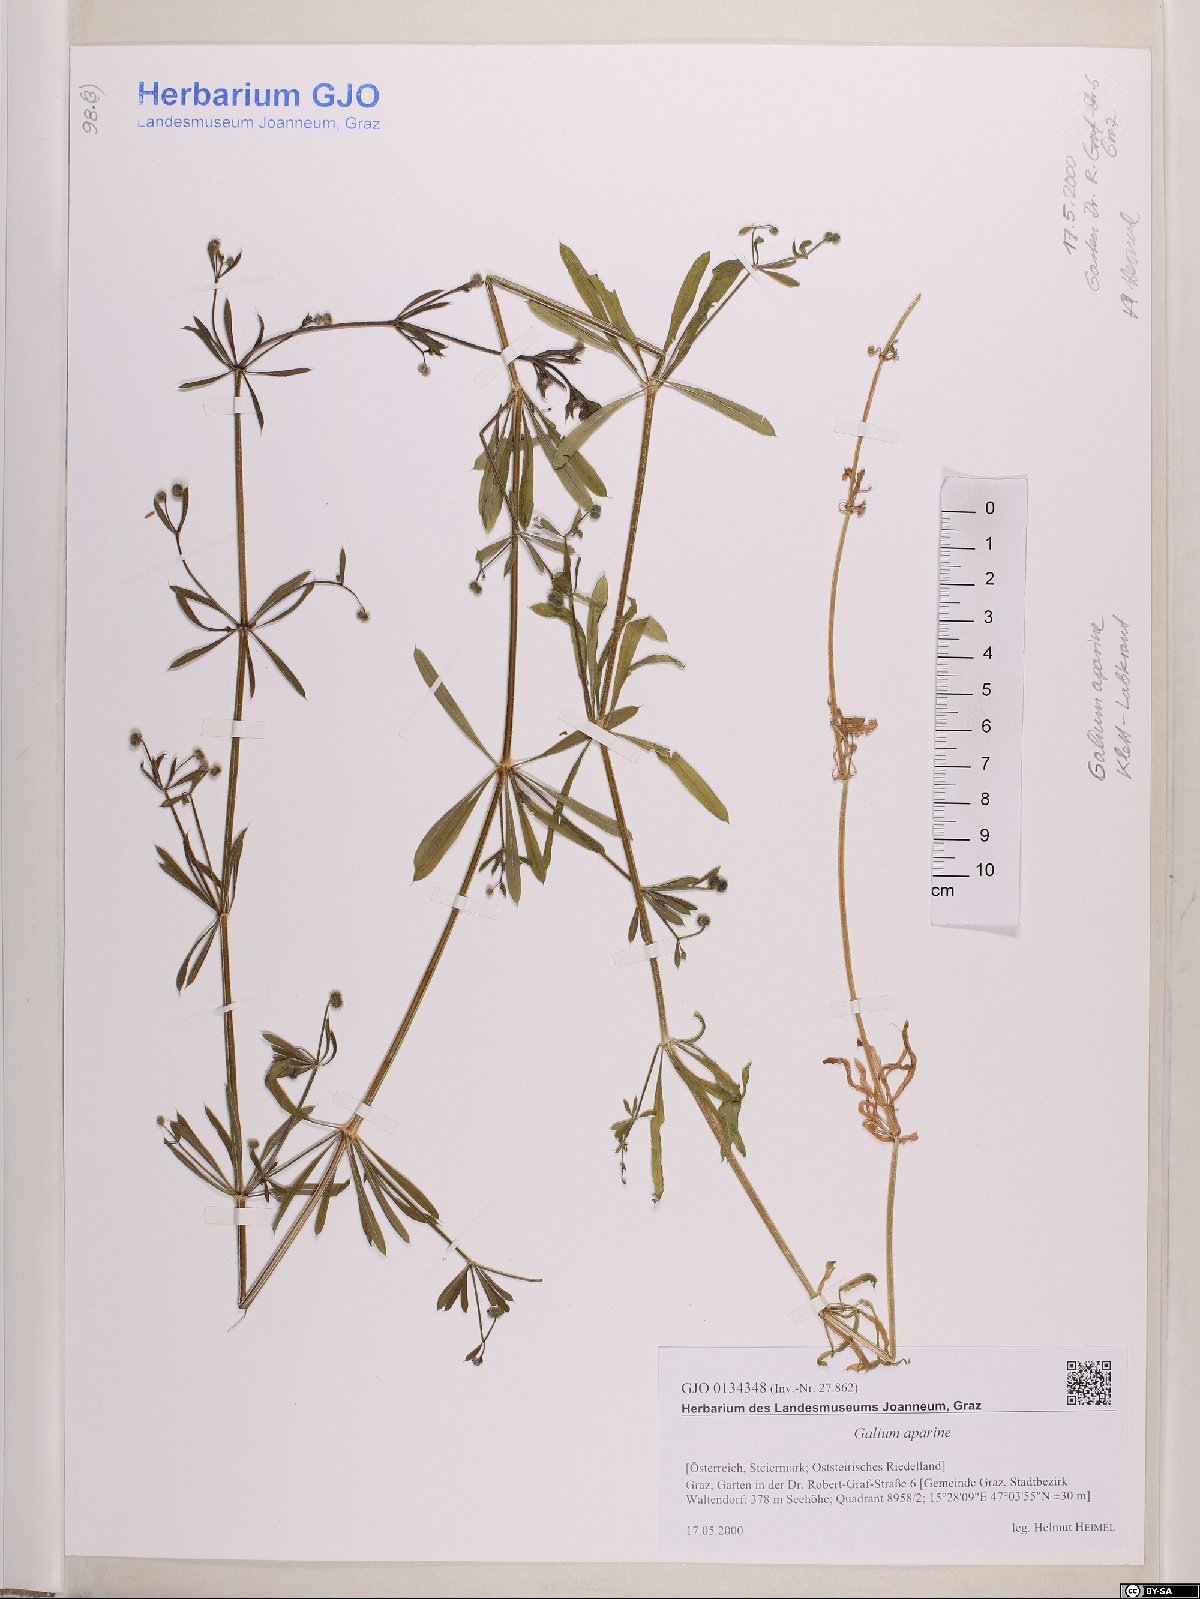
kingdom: Plantae
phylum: Tracheophyta
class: Magnoliopsida
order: Gentianales
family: Rubiaceae
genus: Galium
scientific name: Galium aparine
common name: Cleavers
